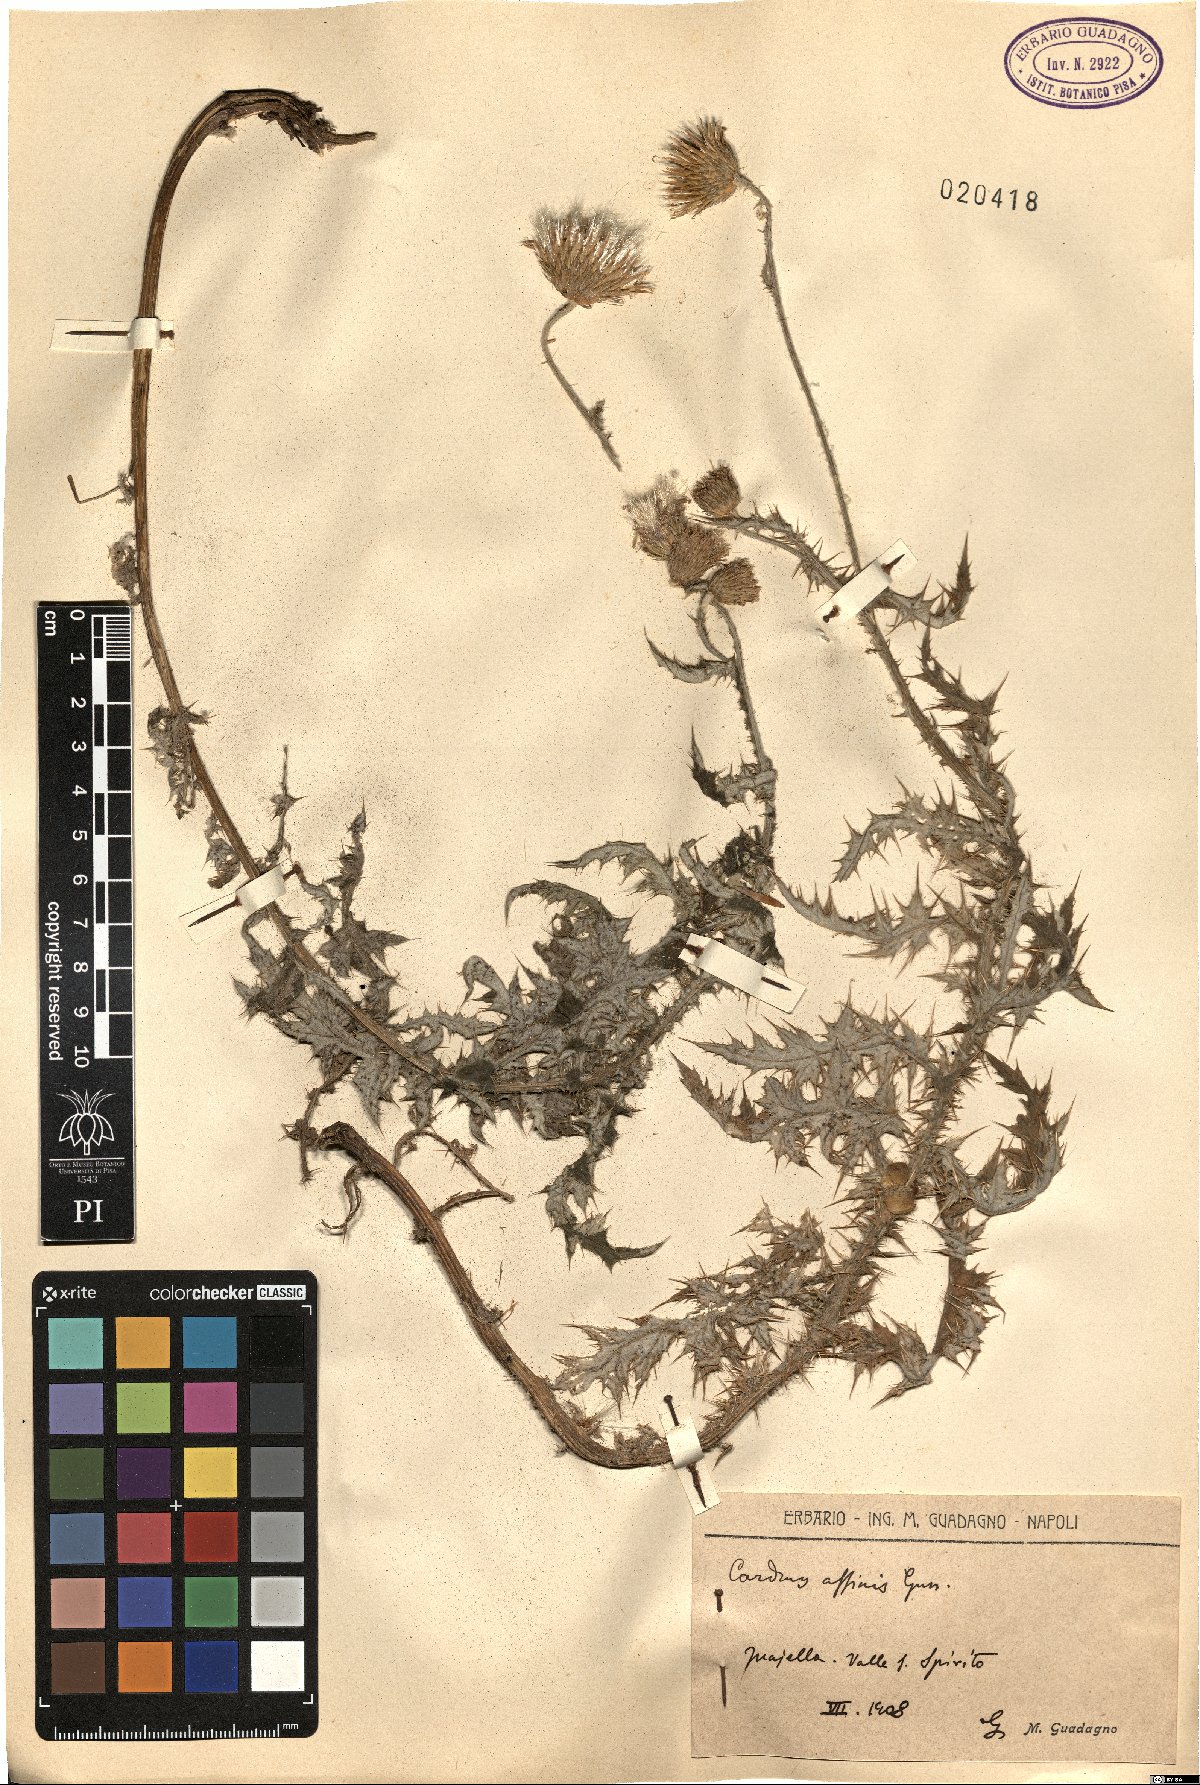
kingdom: Plantae
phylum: Tracheophyta
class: Magnoliopsida
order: Asterales
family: Asteraceae
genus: Carduus
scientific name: Carduus affinis
